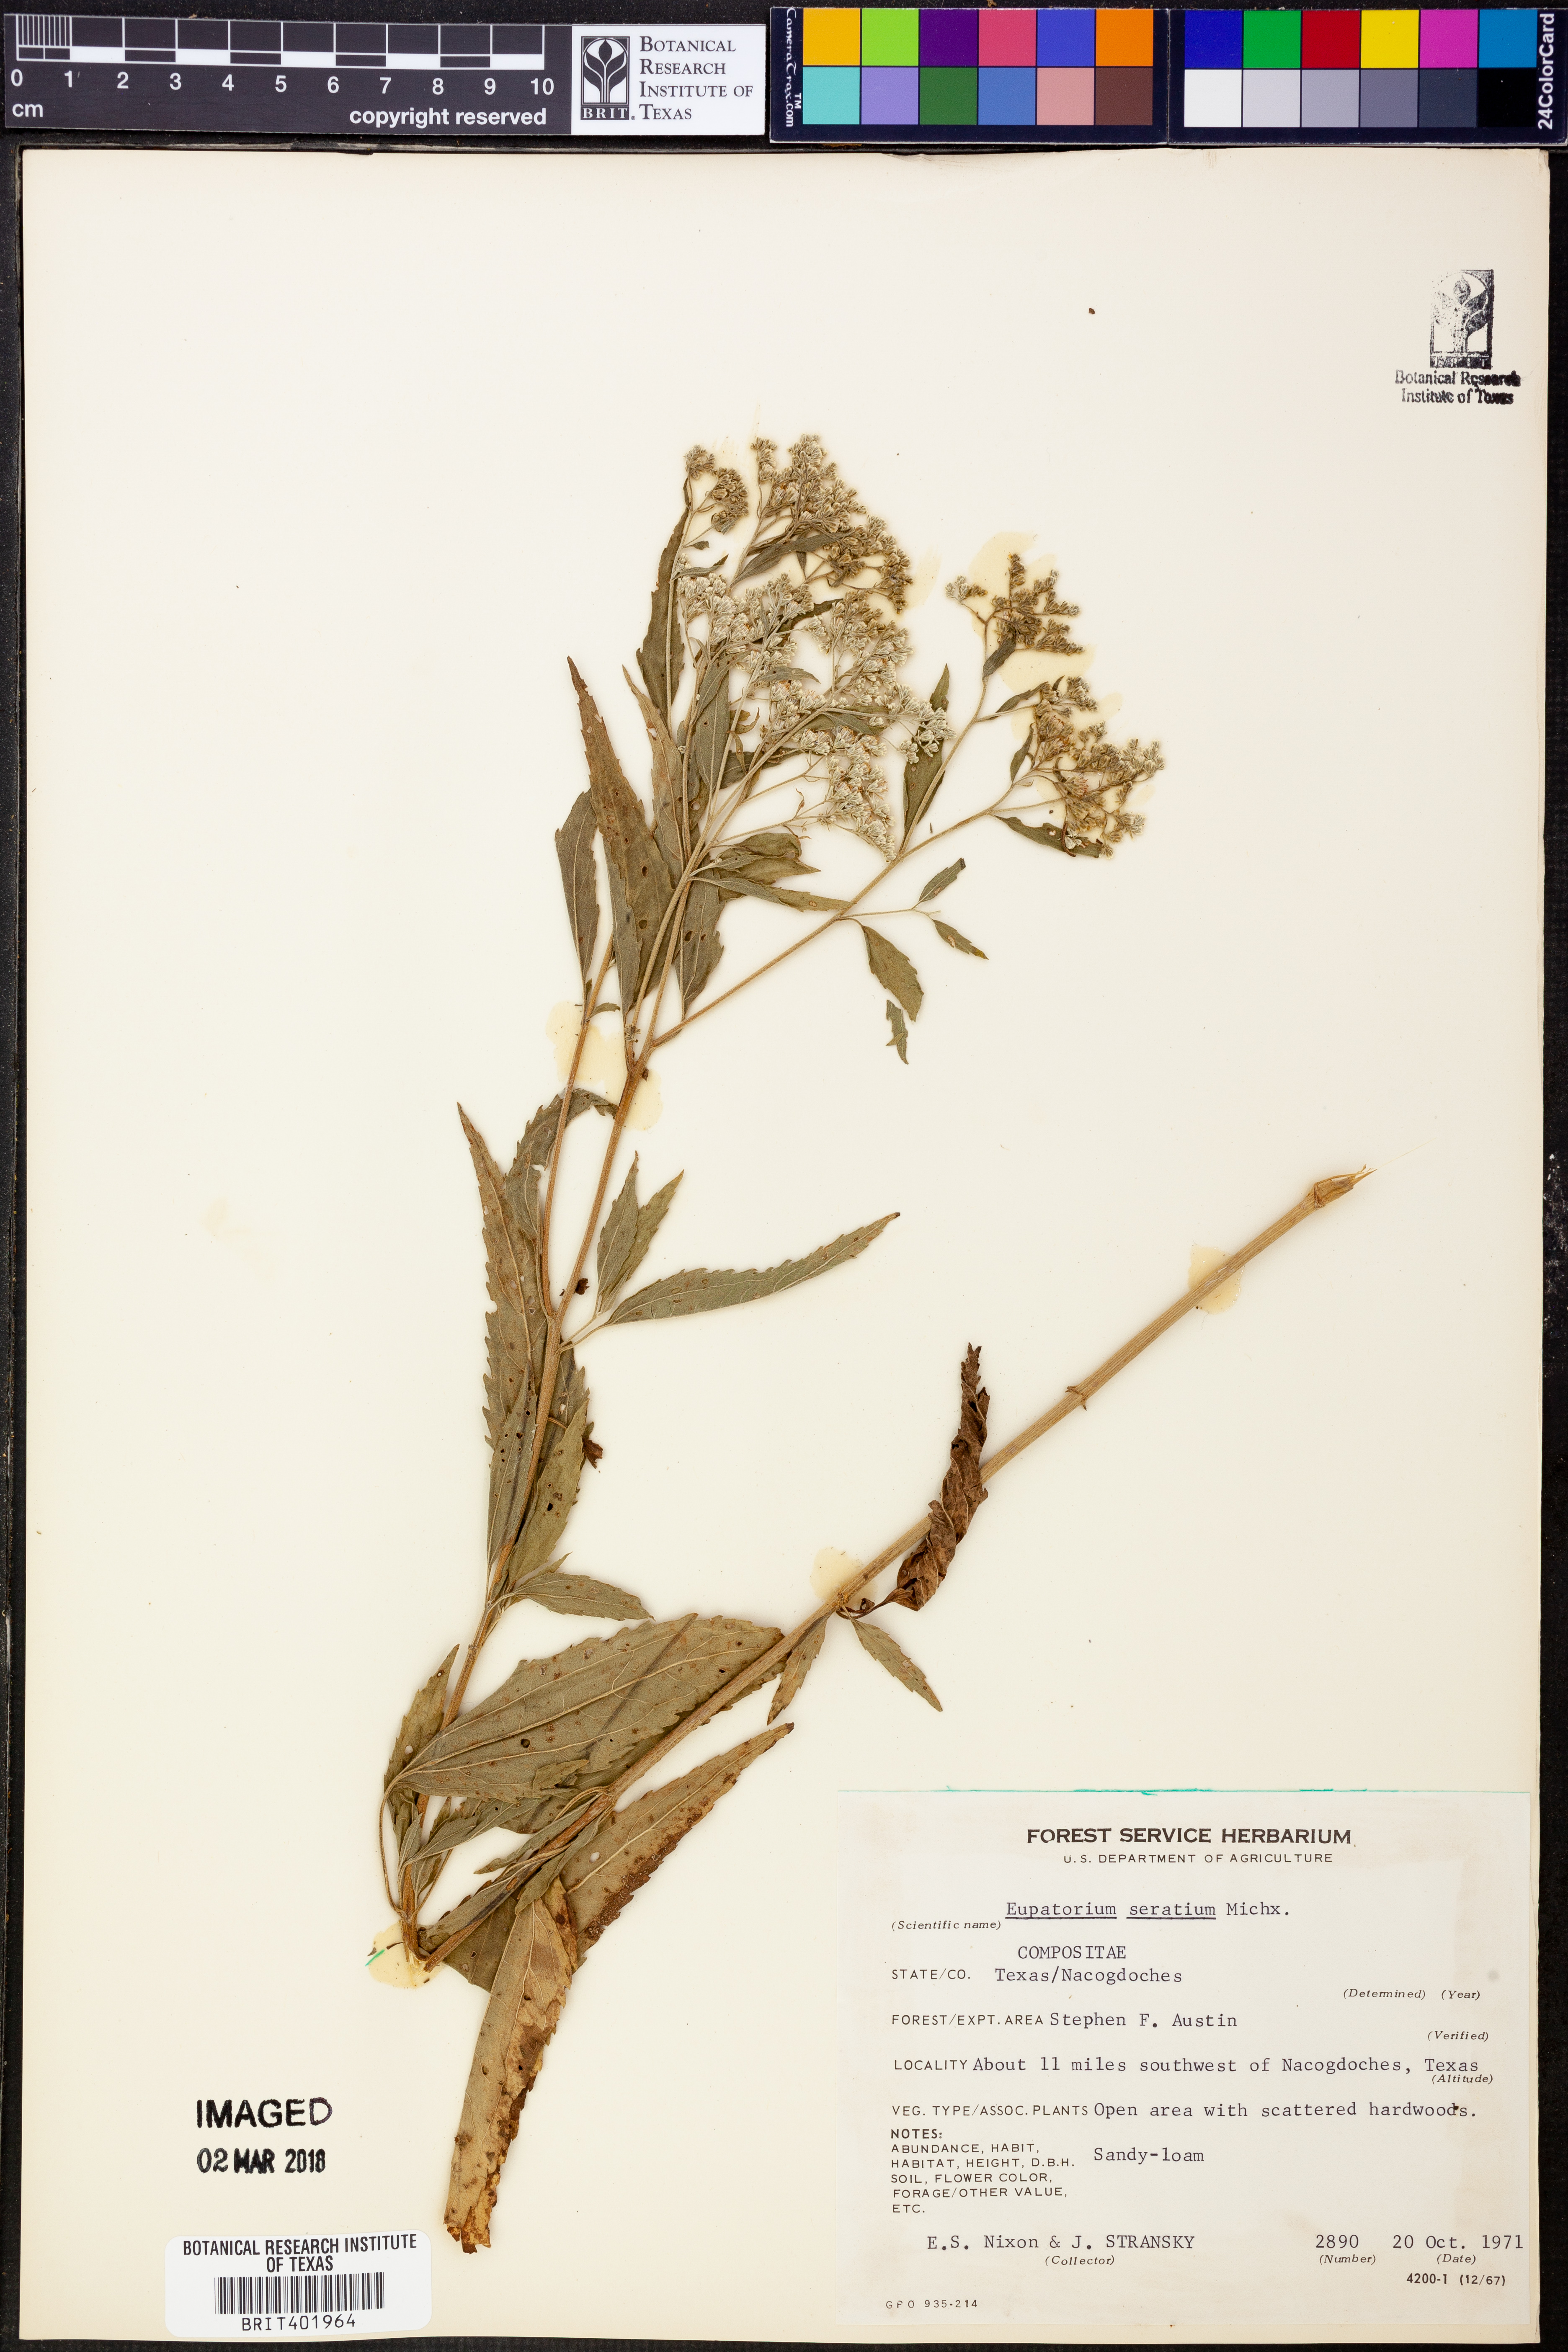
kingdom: Plantae
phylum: Tracheophyta
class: Magnoliopsida
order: Asterales
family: Asteraceae
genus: Eupatorium
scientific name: Eupatorium serotinum
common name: Late boneset
